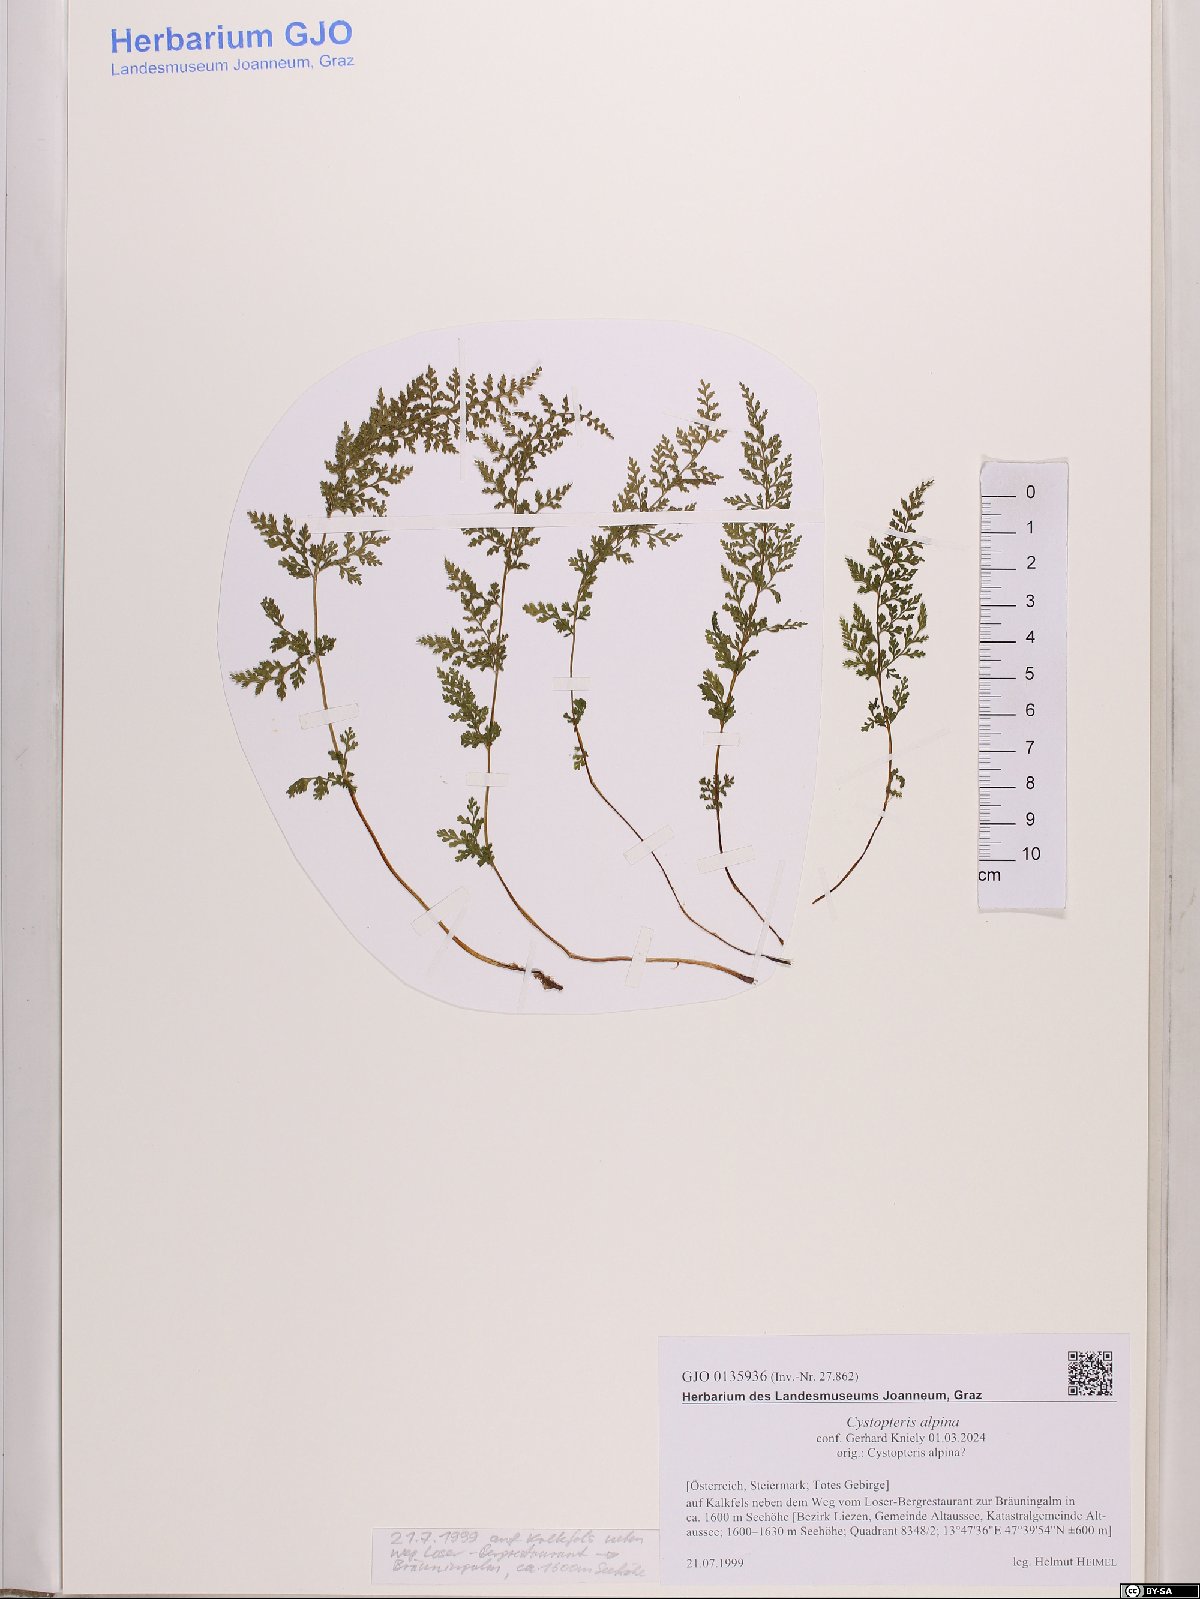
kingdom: Plantae
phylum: Tracheophyta
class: Polypodiopsida
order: Polypodiales
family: Cystopteridaceae
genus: Cystopteris
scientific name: Cystopteris alpina
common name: Alpine bladder-fern
